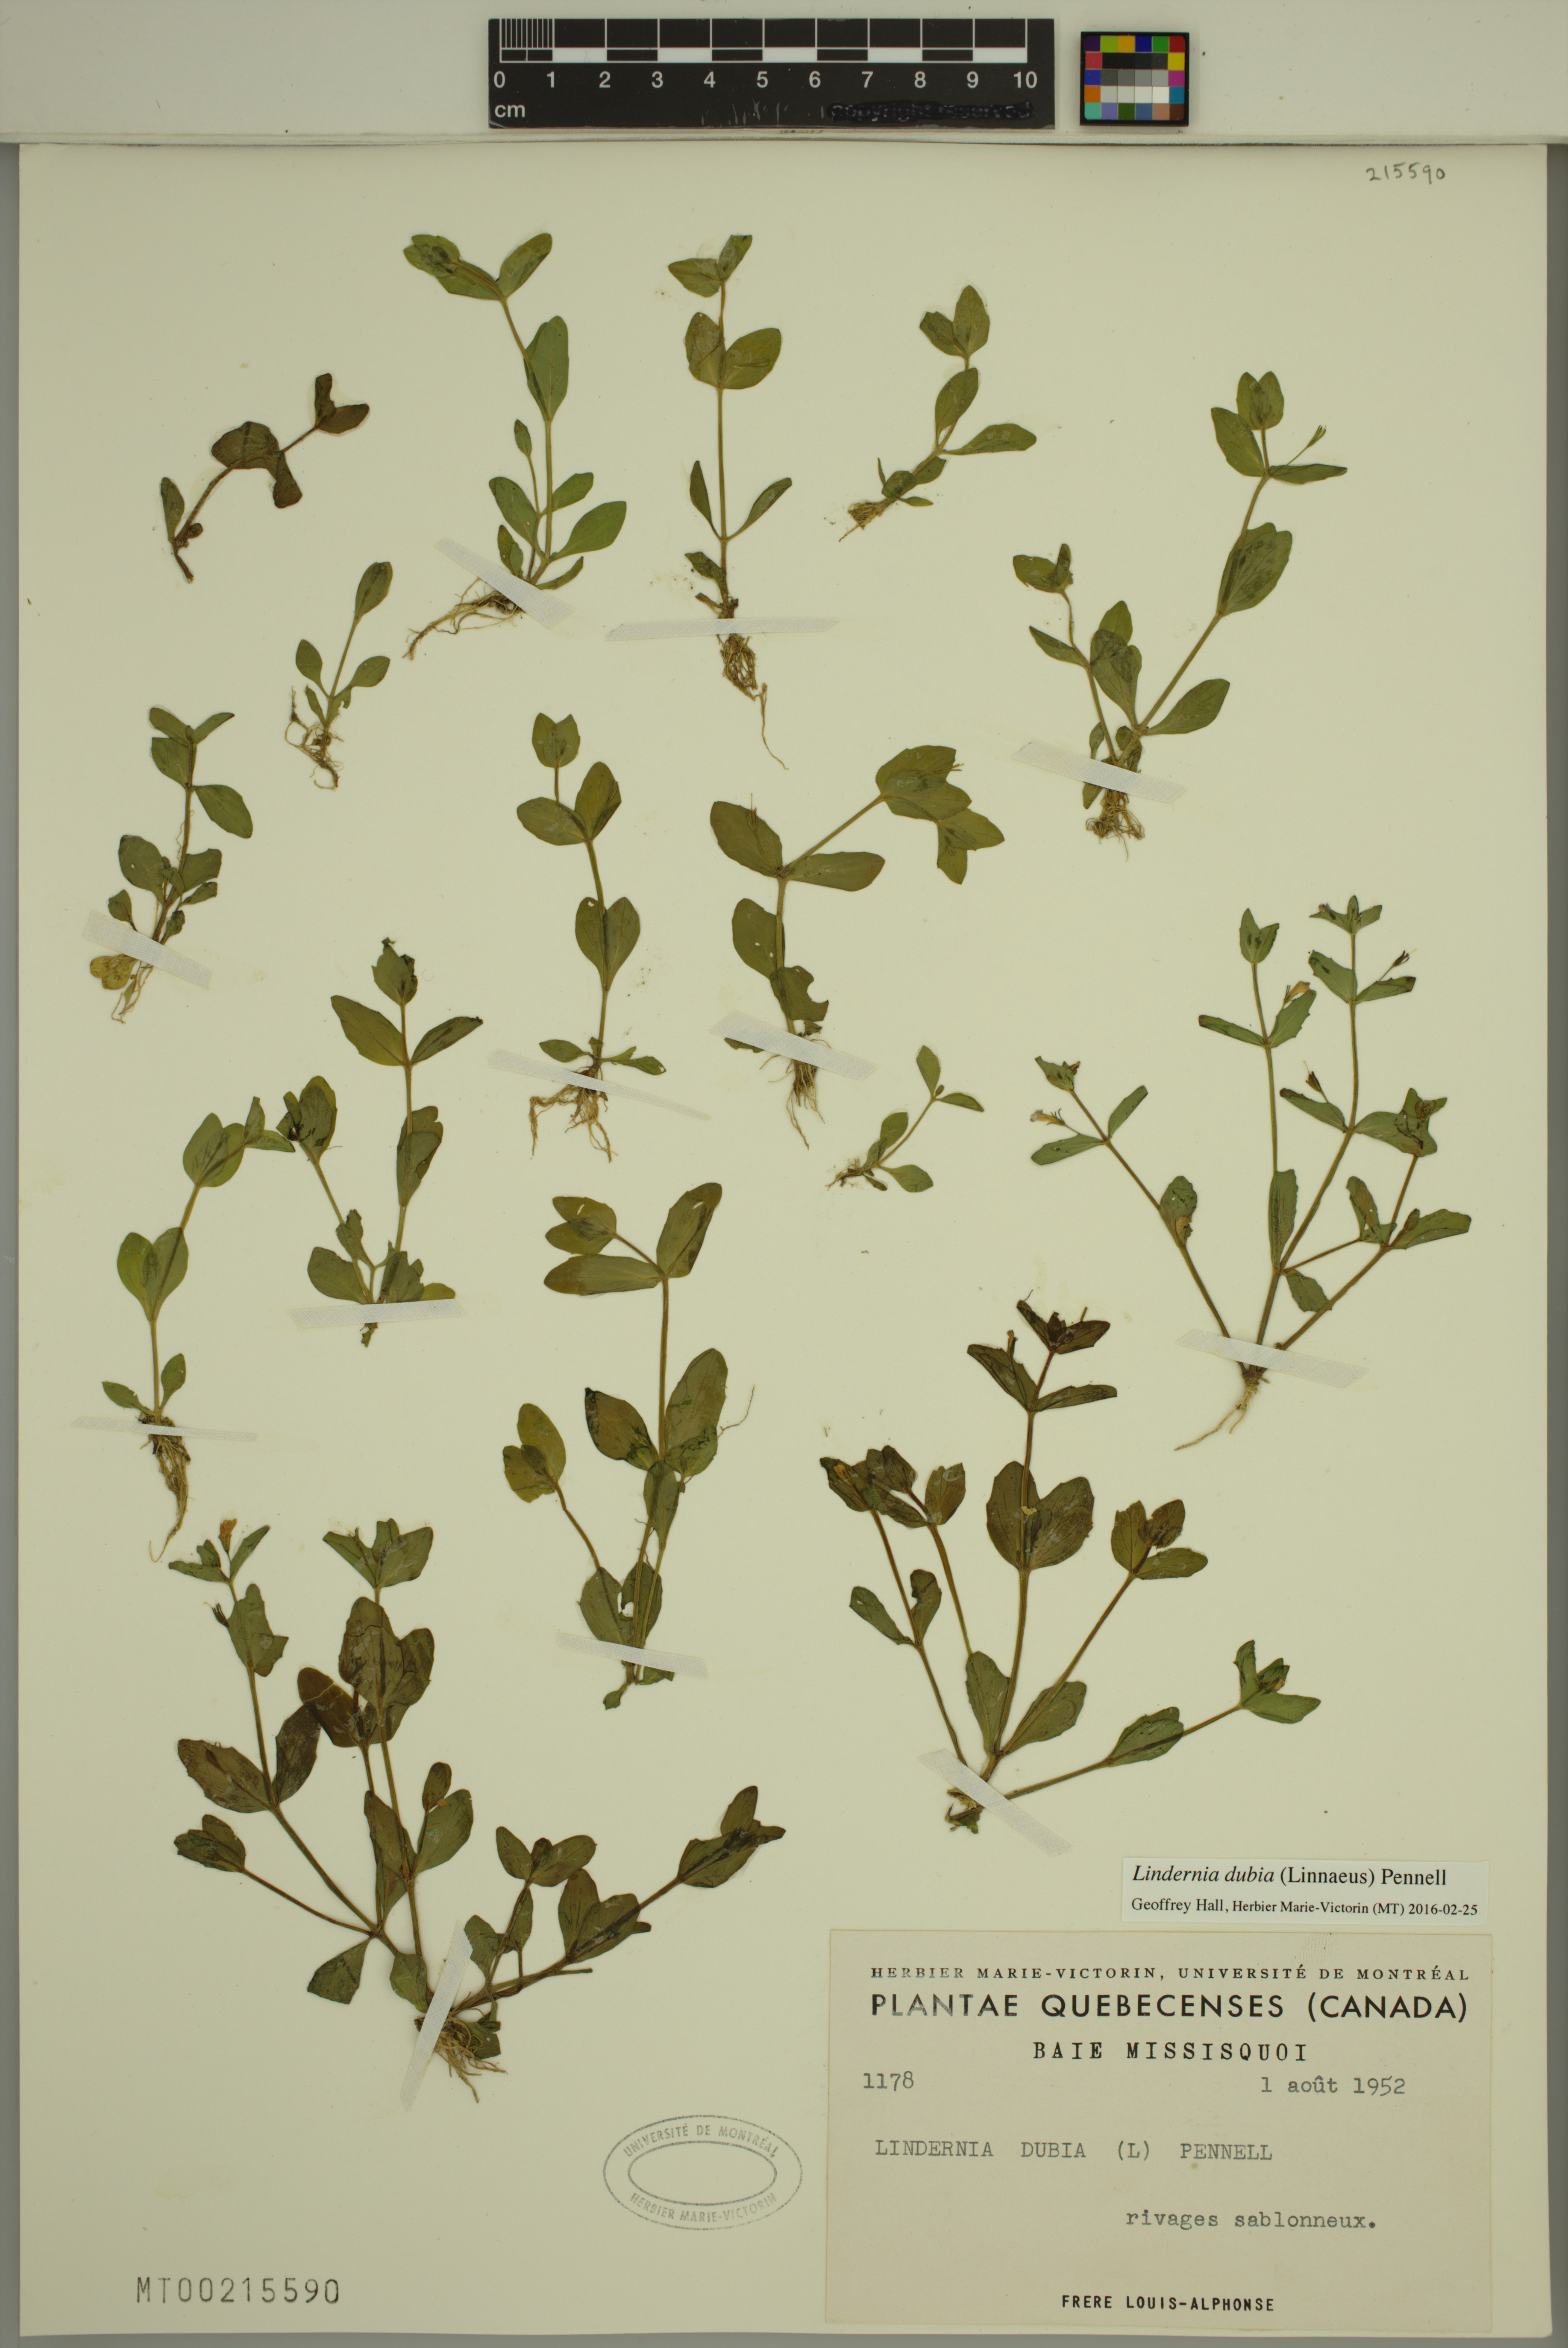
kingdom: Plantae
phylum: Tracheophyta
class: Magnoliopsida
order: Lamiales
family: Linderniaceae
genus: Lindernia
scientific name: Lindernia dubia
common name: Annual false pimpernel
